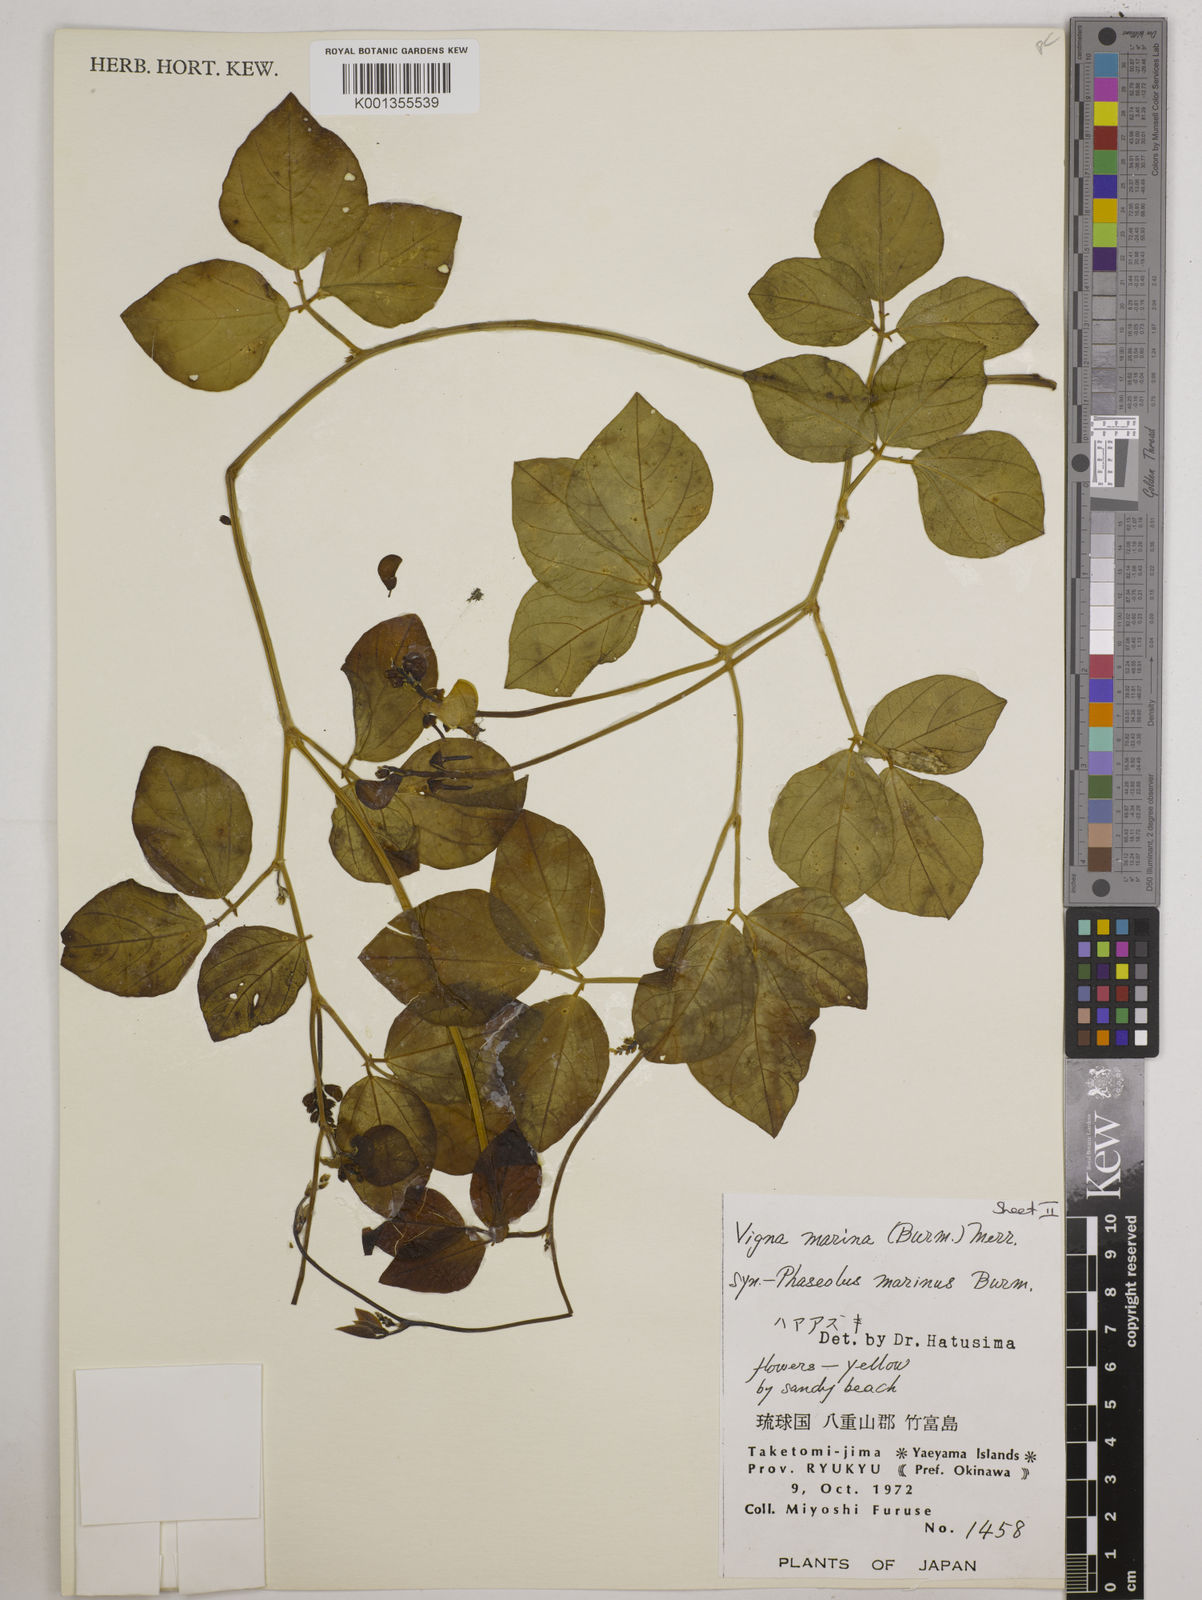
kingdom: Plantae
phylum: Tracheophyta
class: Magnoliopsida
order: Fabales
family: Fabaceae
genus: Vigna
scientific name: Vigna marina
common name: Dune-bean
